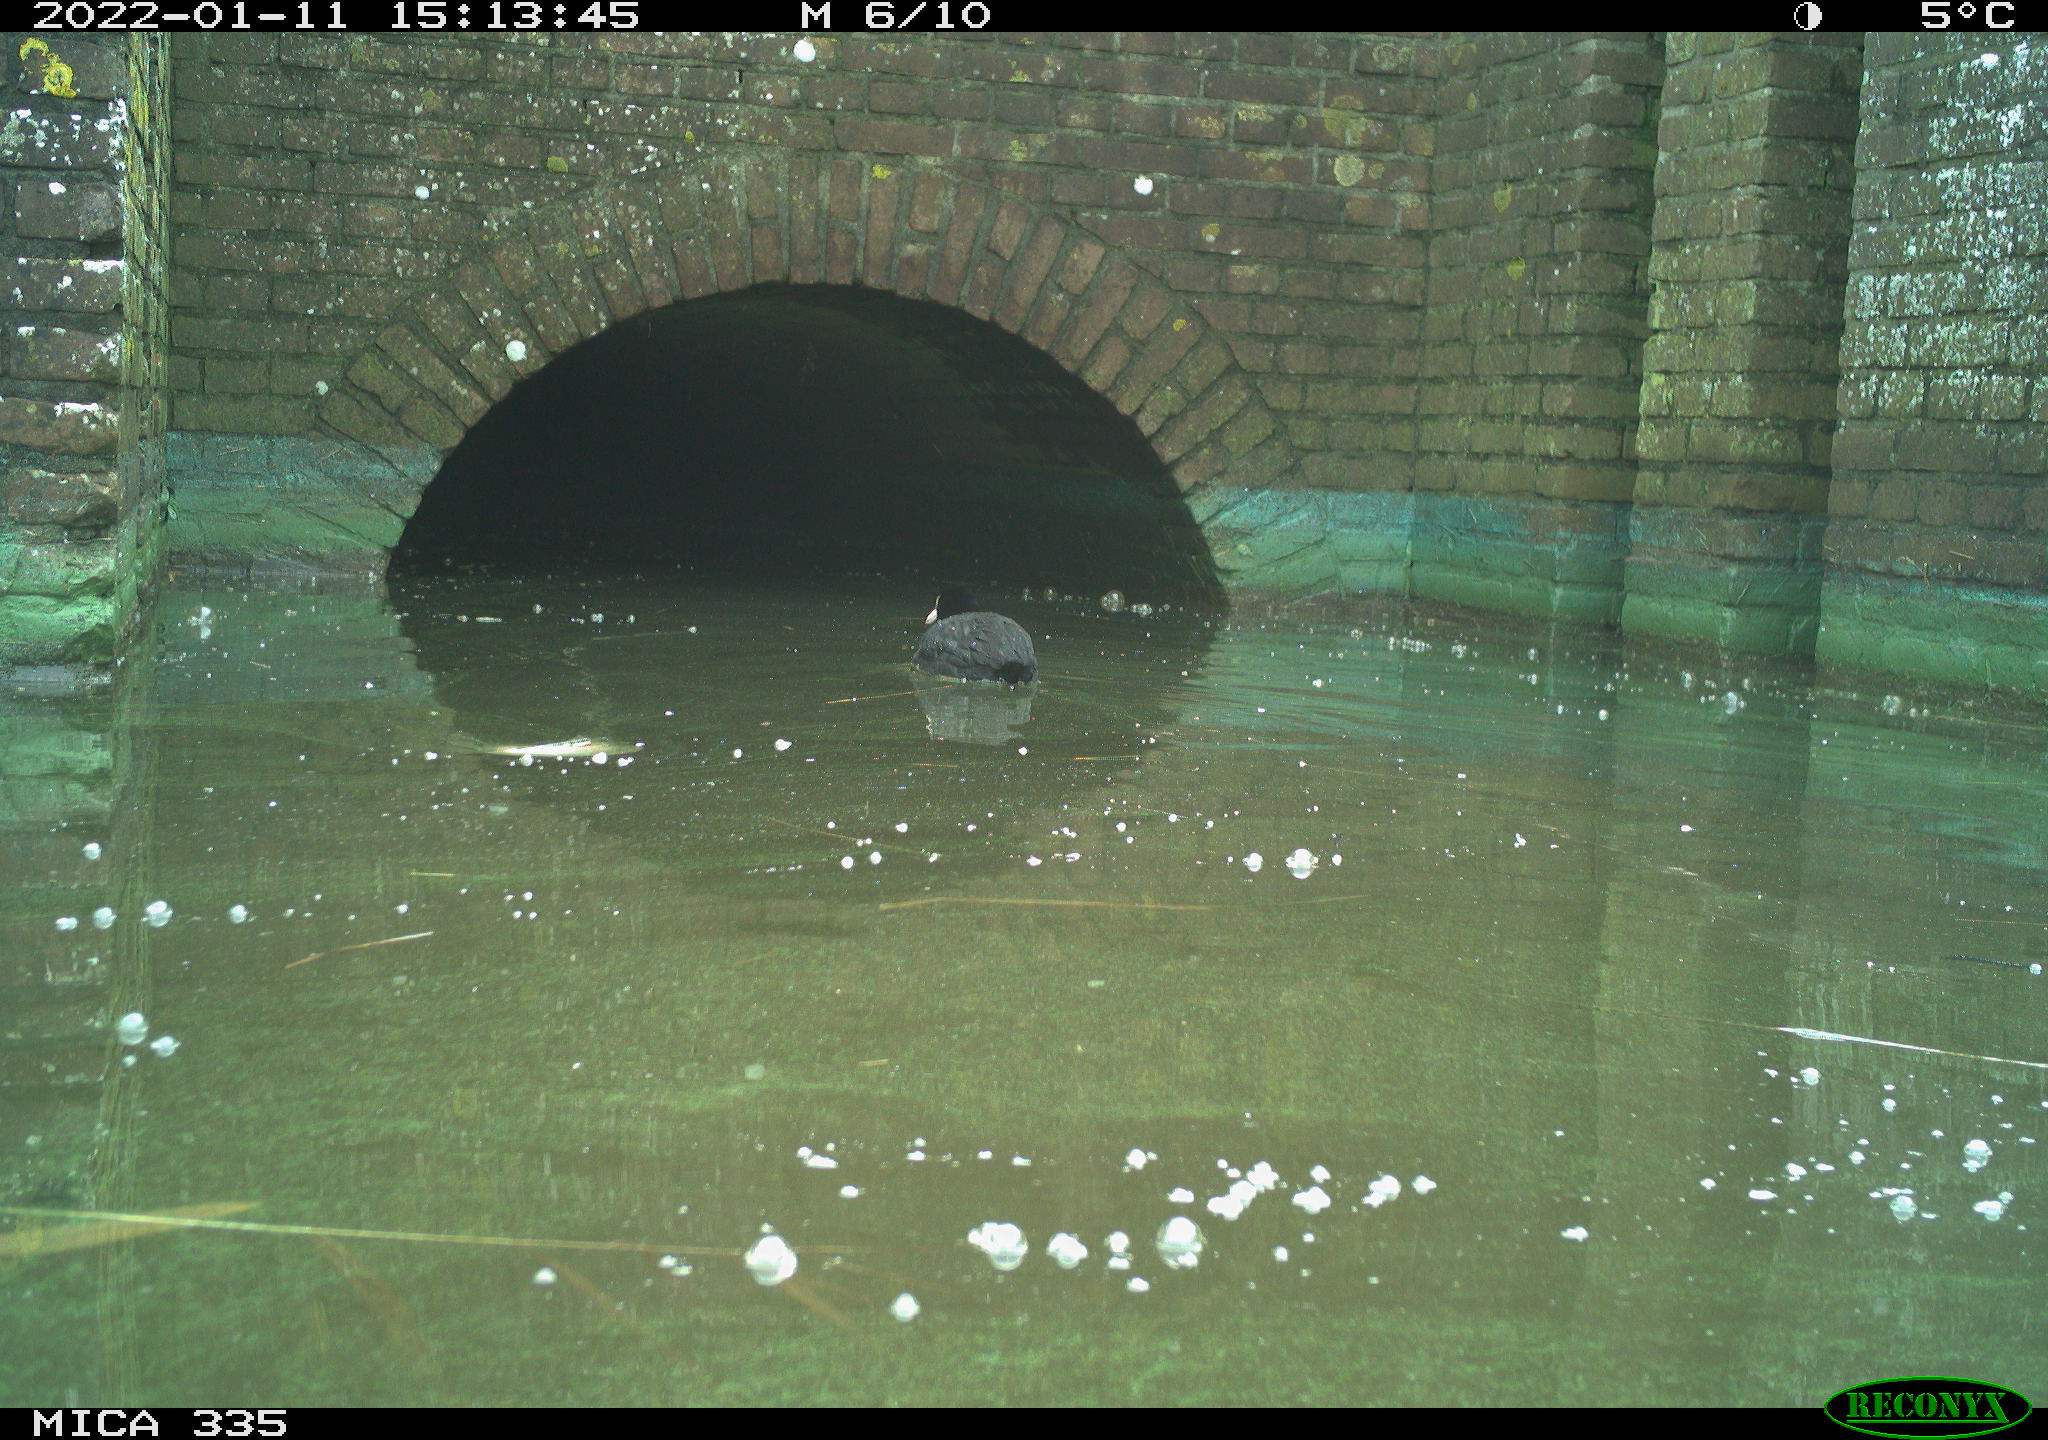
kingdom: Animalia
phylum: Chordata
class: Aves
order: Gruiformes
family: Rallidae
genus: Fulica
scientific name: Fulica atra
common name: Eurasian coot
